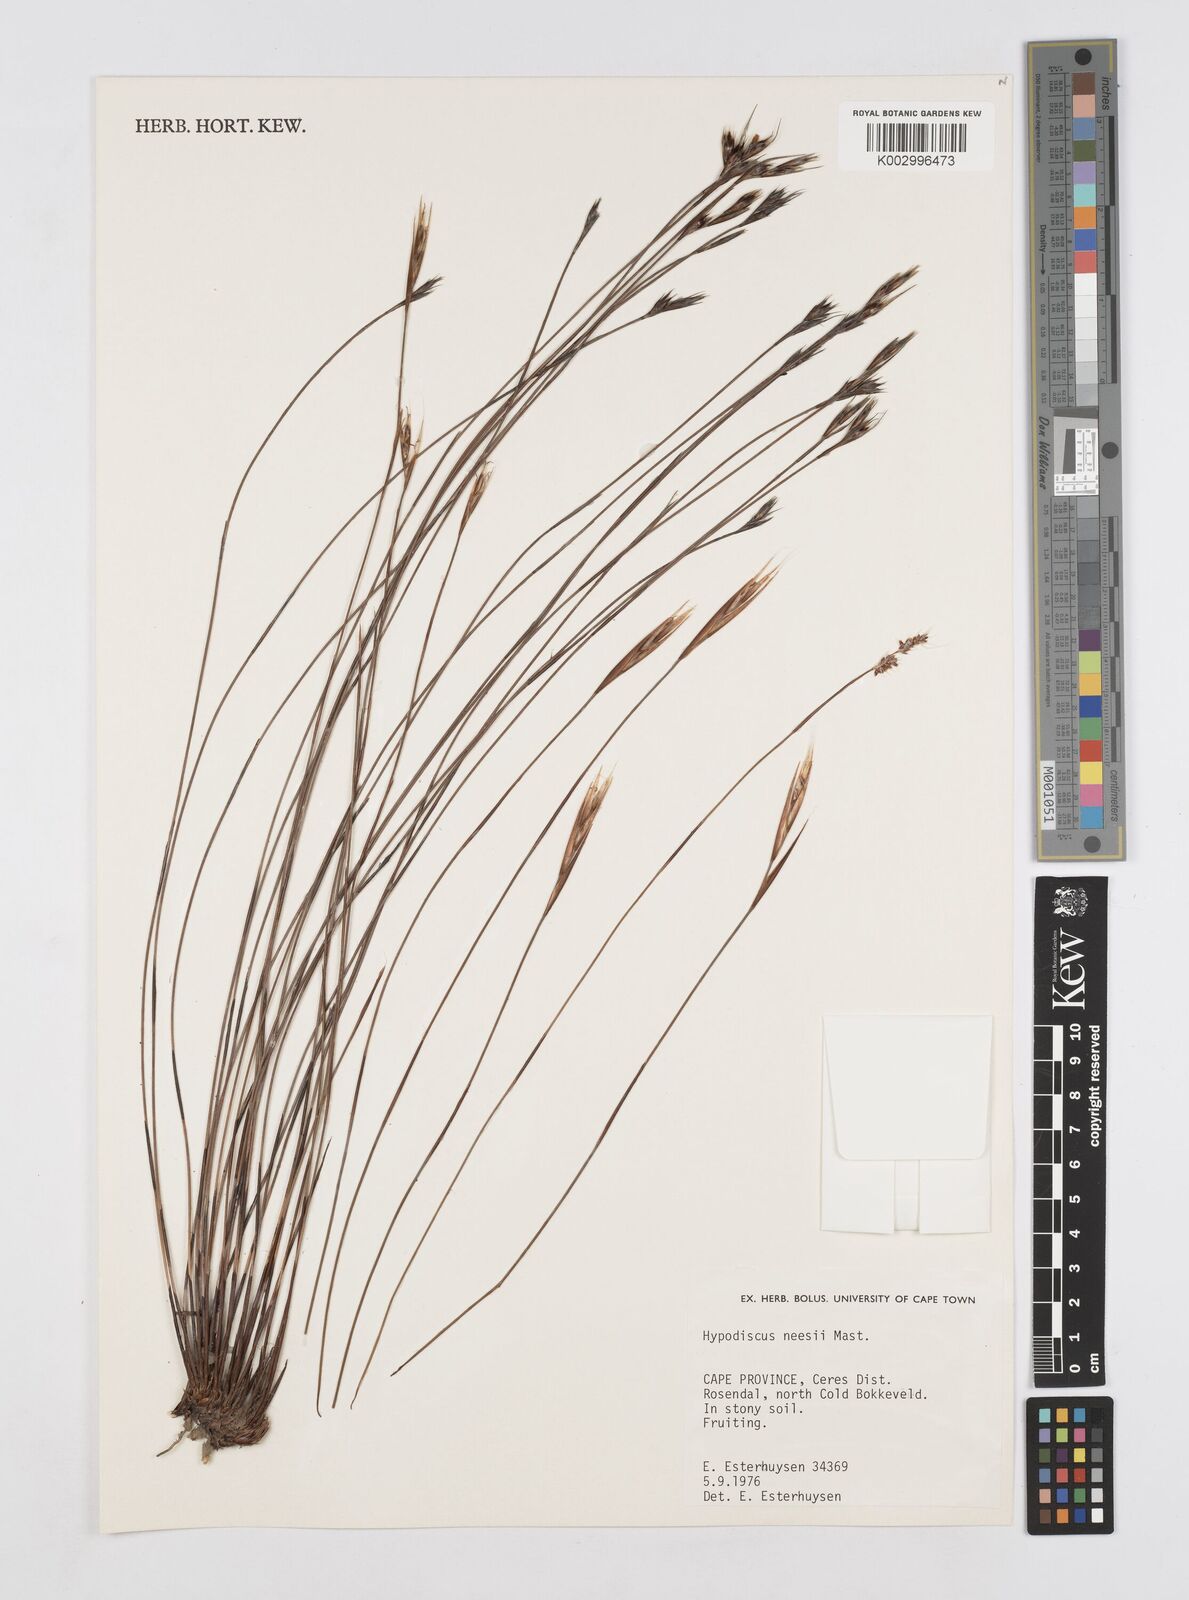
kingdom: Plantae
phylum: Tracheophyta
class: Liliopsida
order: Poales
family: Restionaceae
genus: Hypodiscus
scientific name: Hypodiscus neesii
